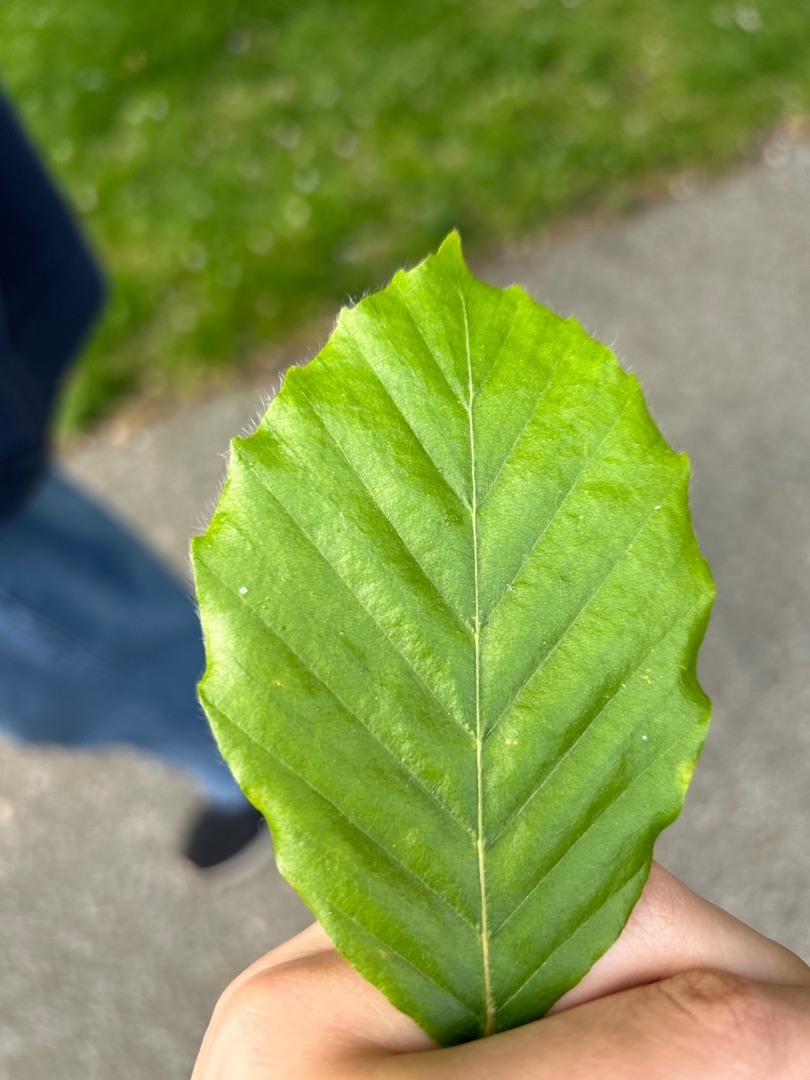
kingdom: Plantae
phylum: Tracheophyta
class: Magnoliopsida
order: Fagales
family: Fagaceae
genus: Fagus
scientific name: Fagus sylvatica
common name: Bøg
